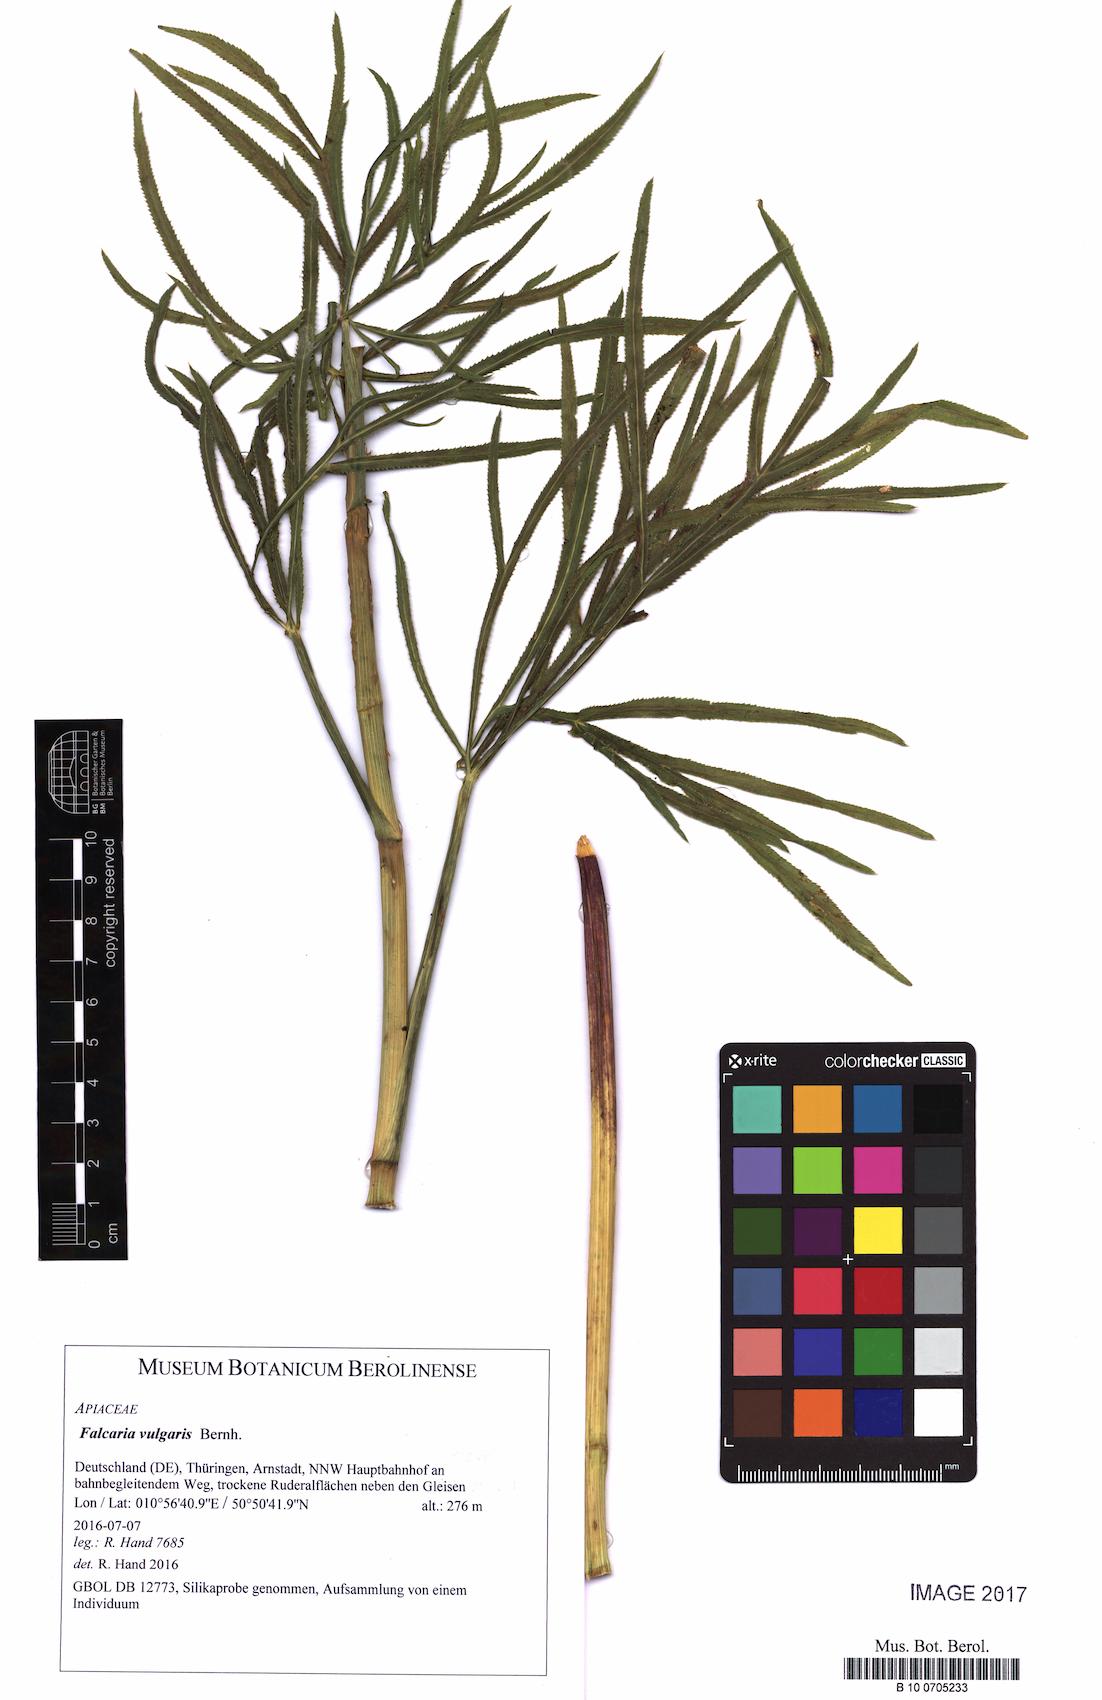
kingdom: Plantae
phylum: Tracheophyta
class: Magnoliopsida
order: Apiales
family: Apiaceae
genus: Falcaria
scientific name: Falcaria vulgaris
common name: Longleaf
